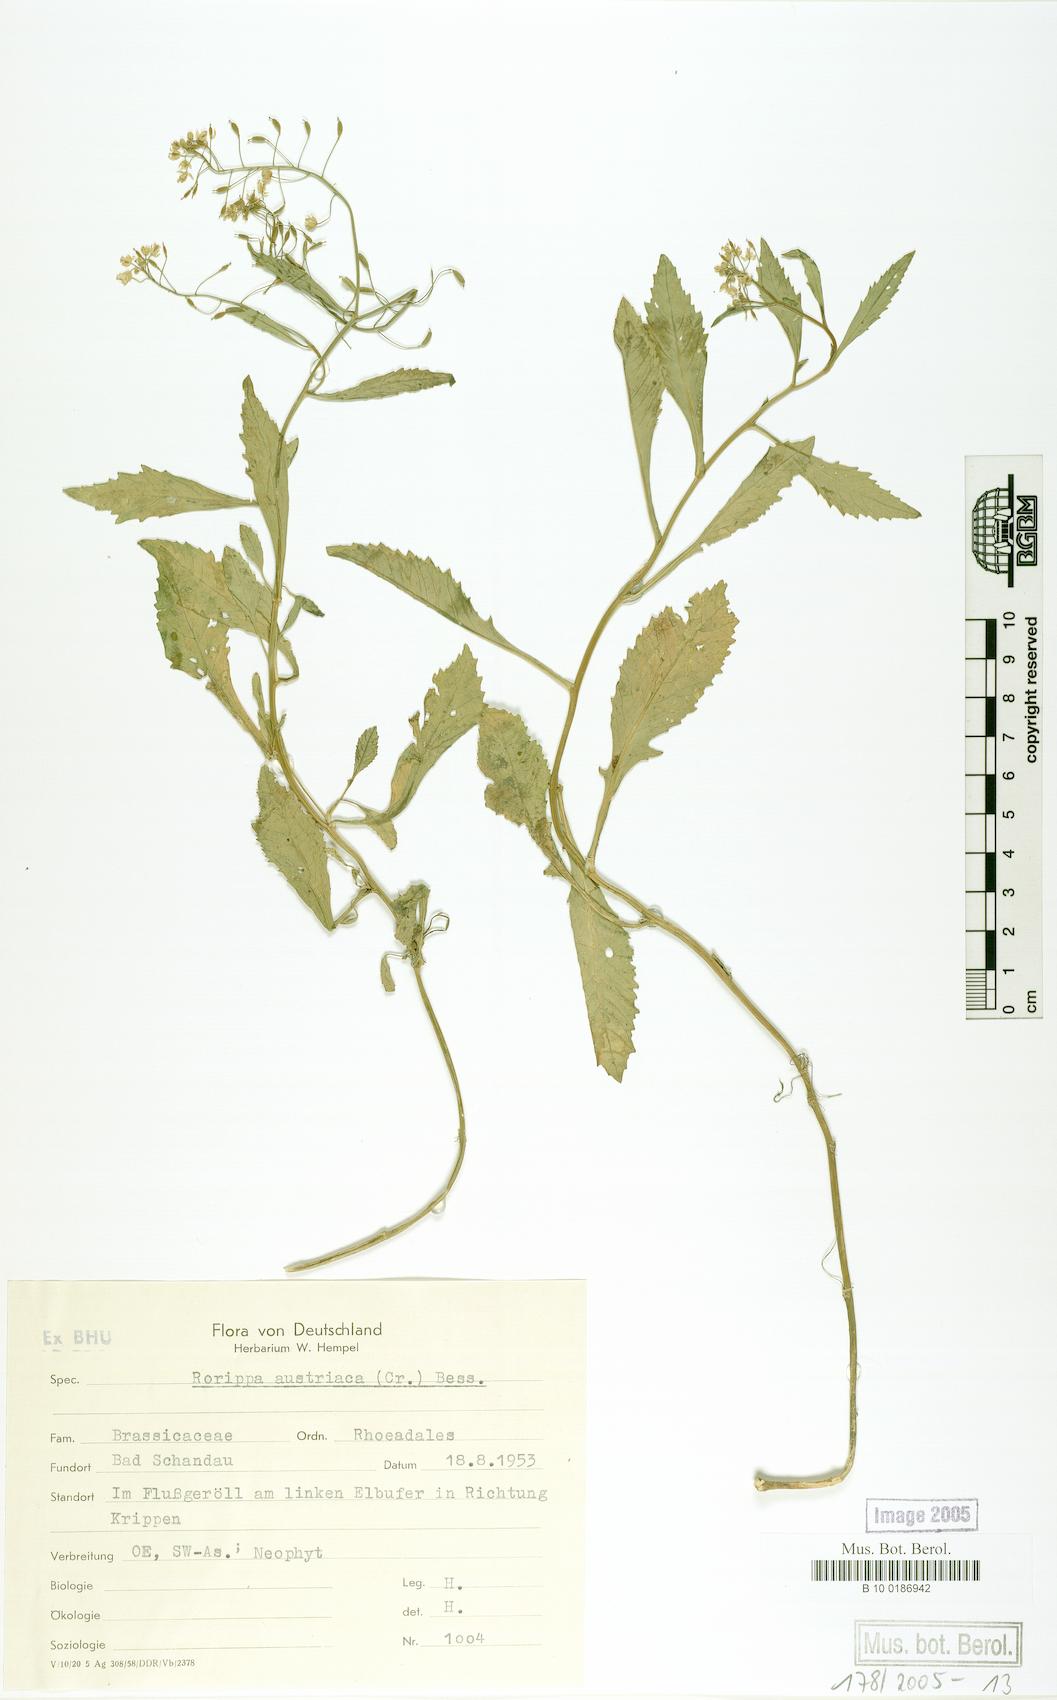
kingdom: Plantae
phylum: Tracheophyta
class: Magnoliopsida
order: Brassicales
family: Brassicaceae
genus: Rorippa
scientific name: Rorippa austriaca
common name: Austrian yellow-cress
